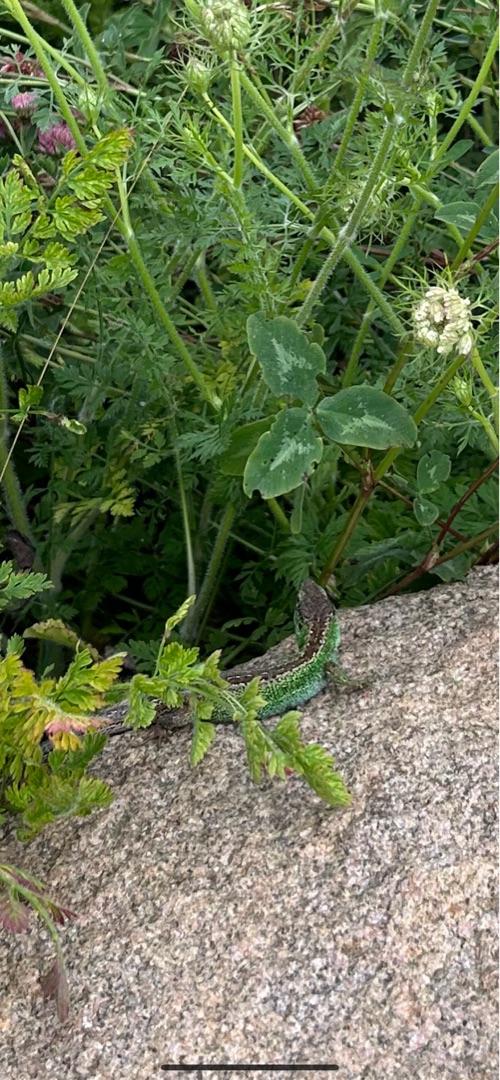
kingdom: Animalia
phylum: Chordata
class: Squamata
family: Lacertidae
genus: Lacerta
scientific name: Lacerta agilis
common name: Markfirben
